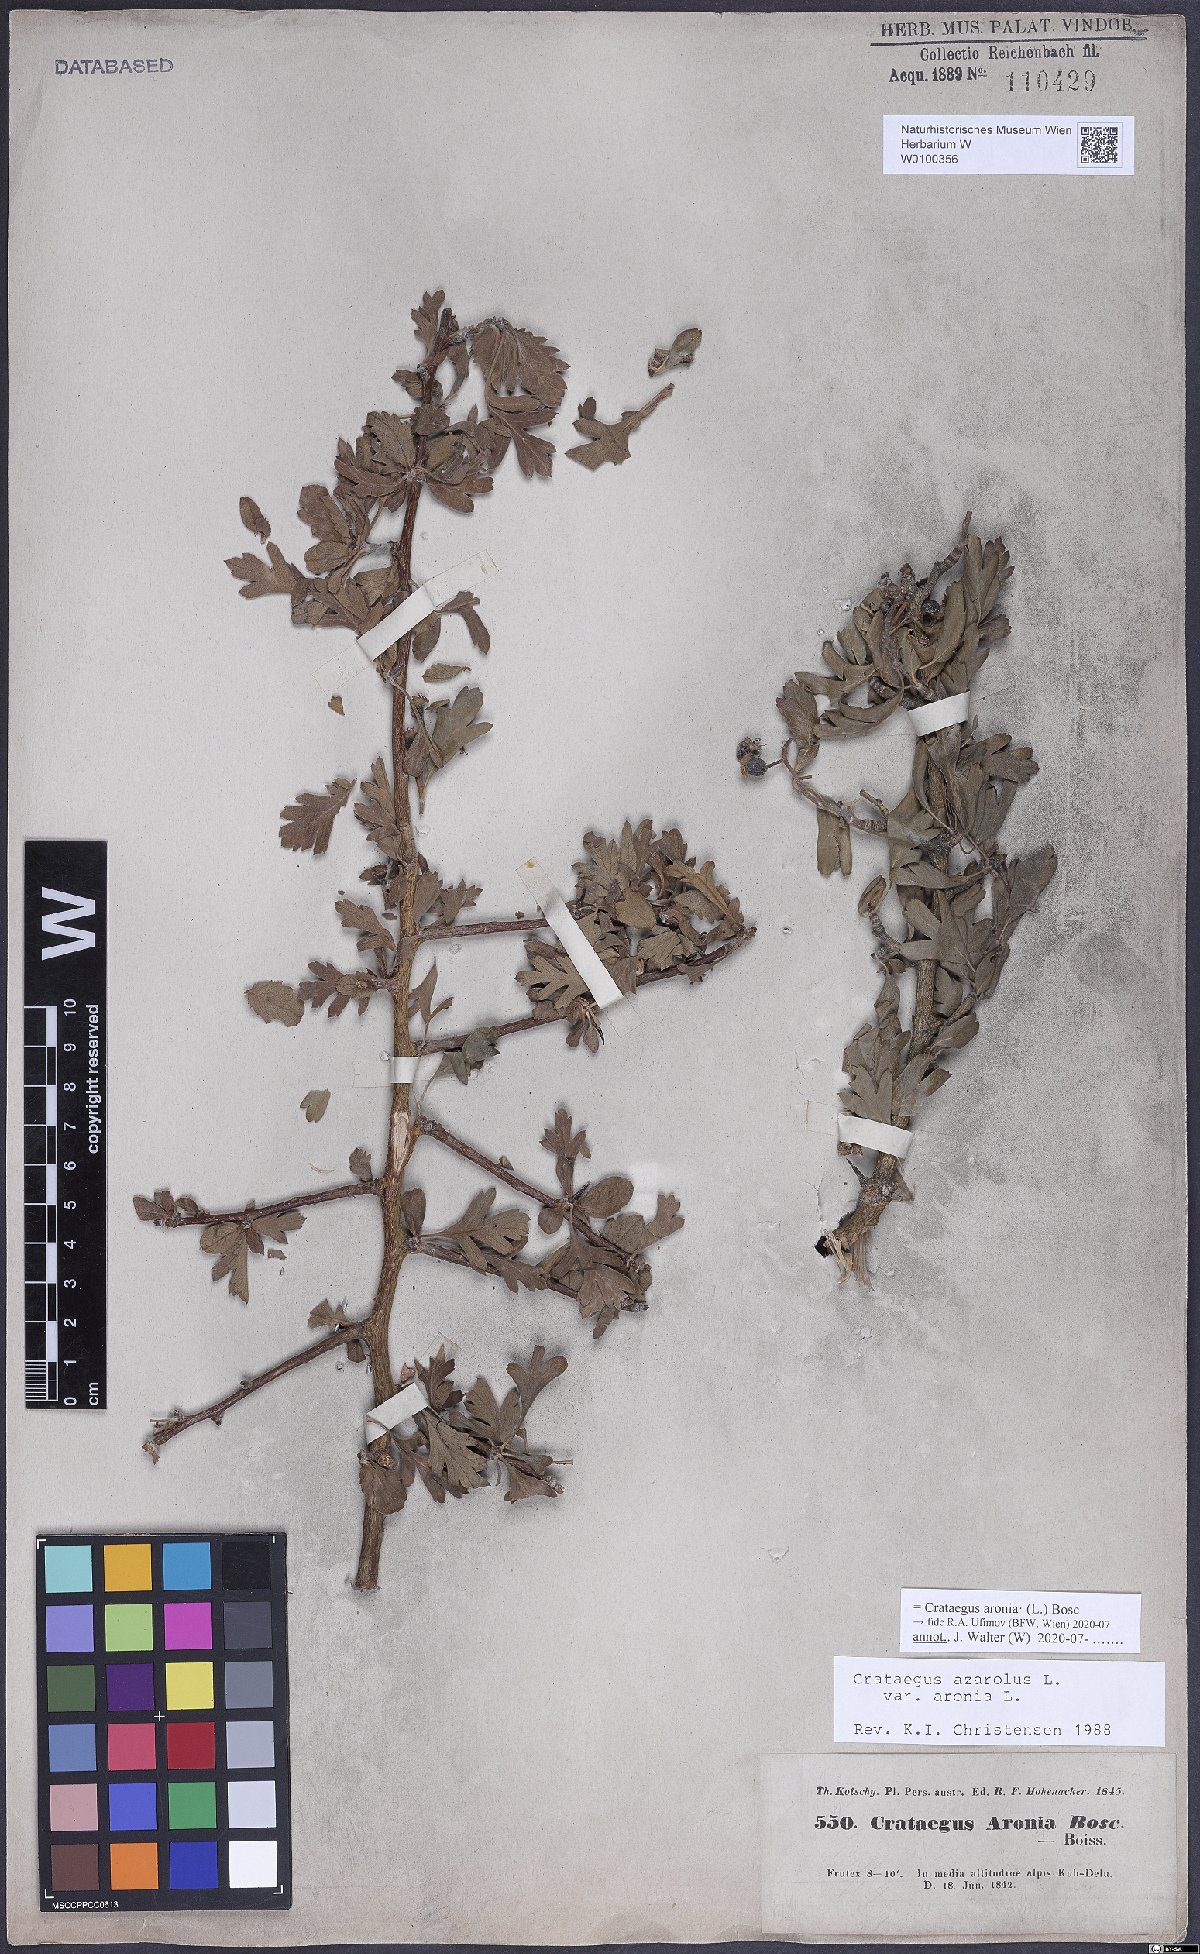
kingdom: Plantae
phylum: Tracheophyta
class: Magnoliopsida
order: Rosales
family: Rosaceae
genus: Crataegus
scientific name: Crataegus azarolus
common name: Azarole
